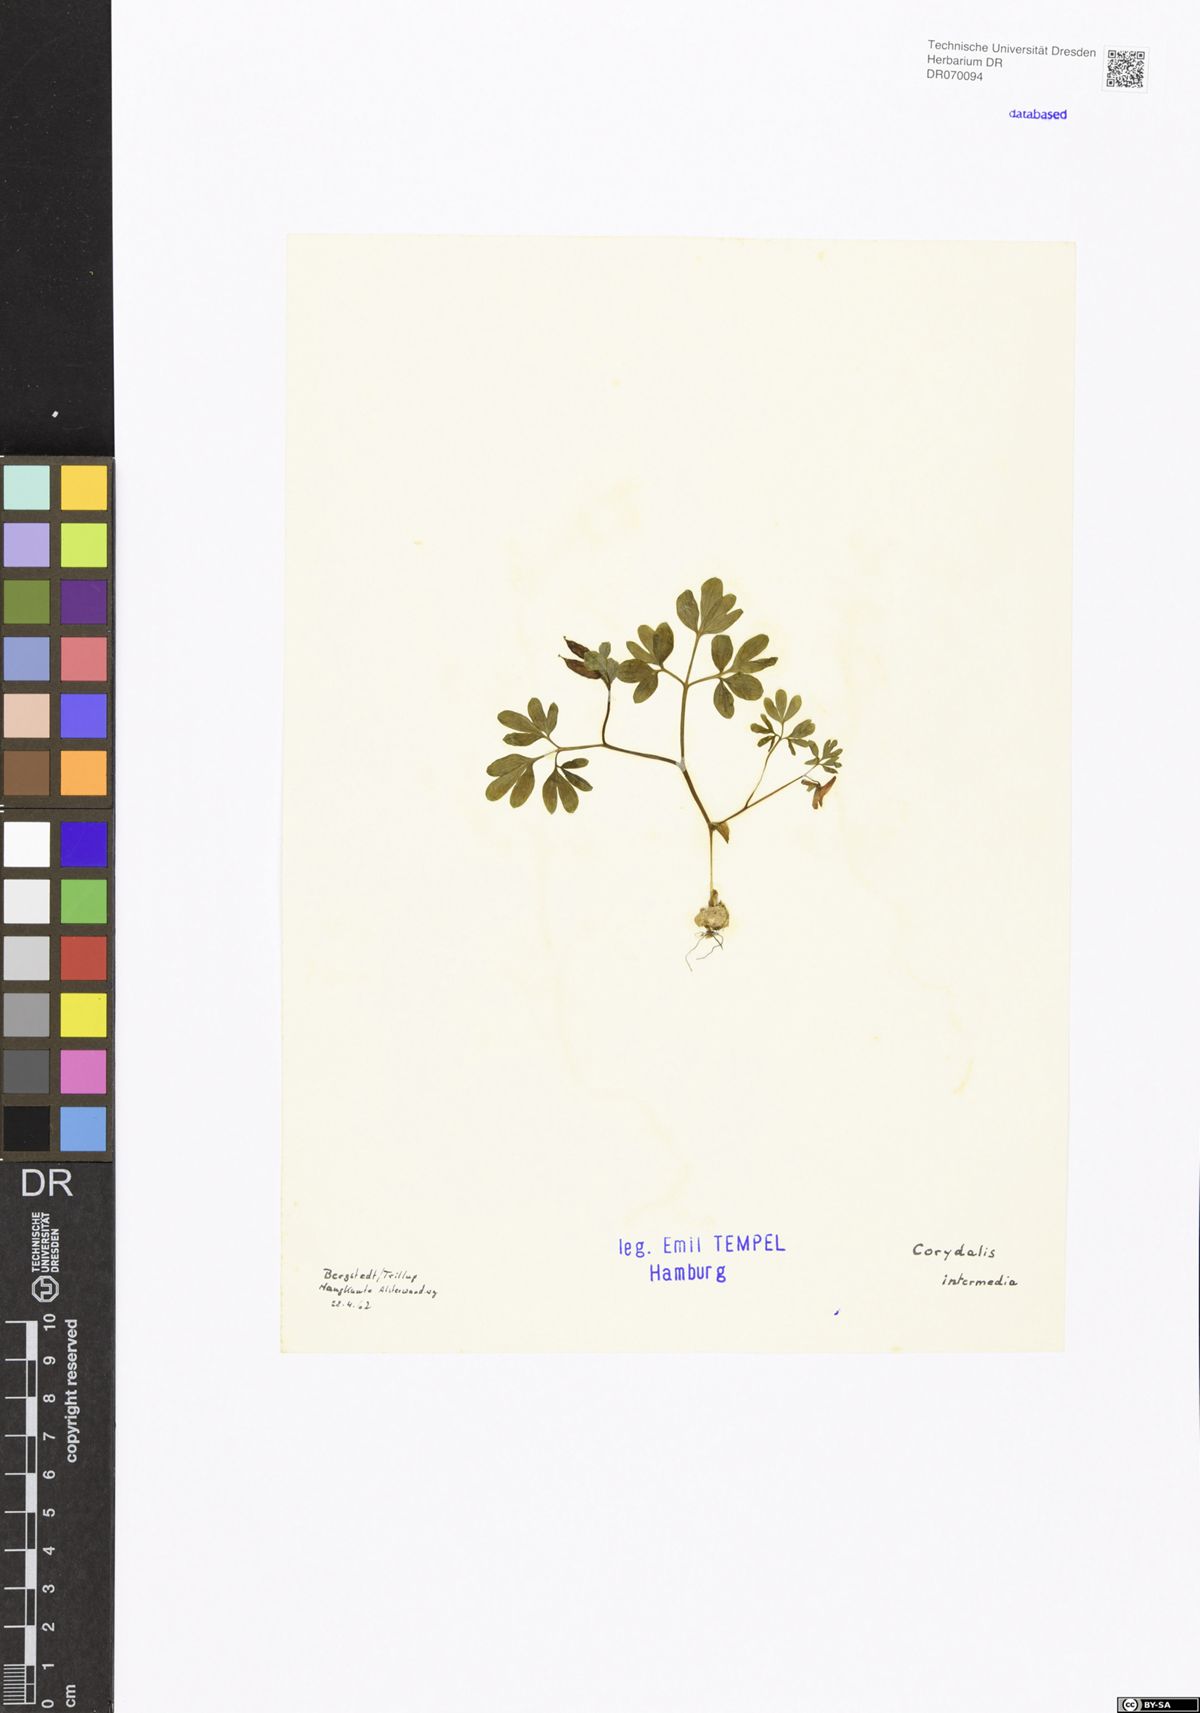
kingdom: Plantae
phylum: Tracheophyta
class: Magnoliopsida
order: Ranunculales
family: Papaveraceae
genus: Corydalis
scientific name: Corydalis intermedia
